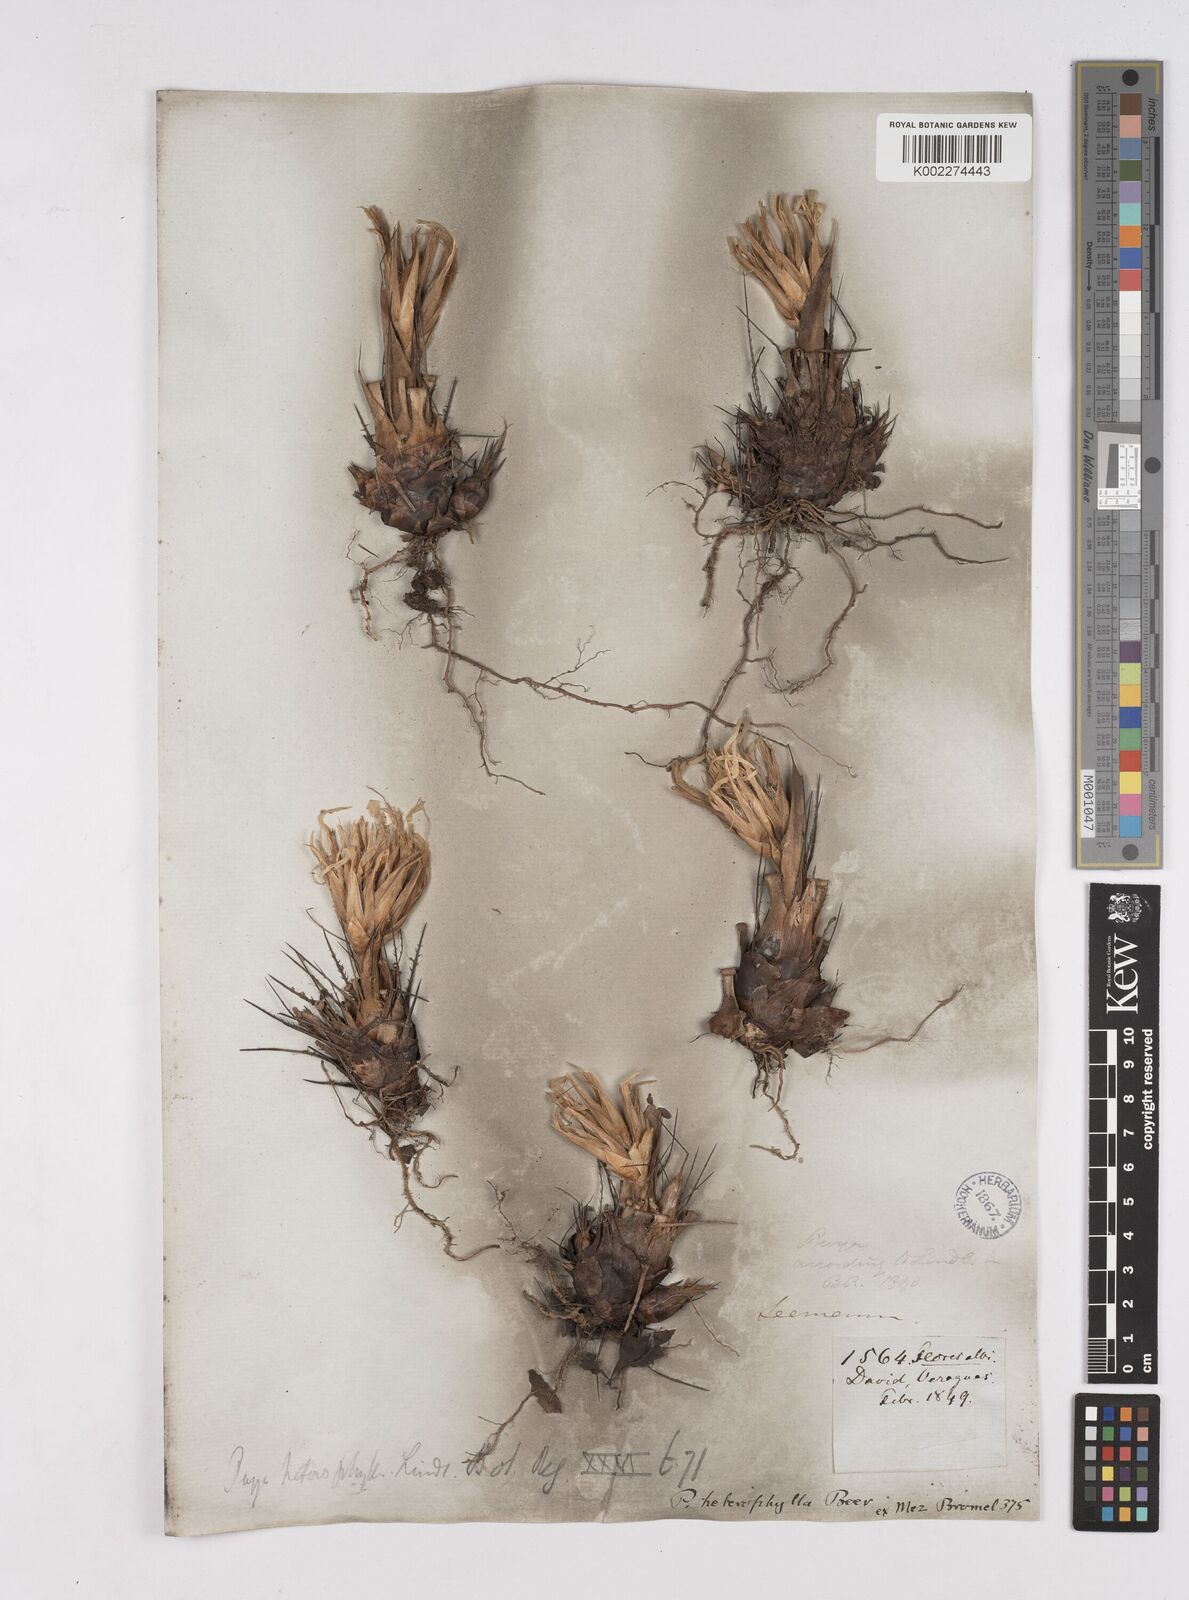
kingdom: Plantae
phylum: Tracheophyta
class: Liliopsida
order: Poales
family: Bromeliaceae
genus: Pitcairnia
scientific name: Pitcairnia heterophylla
